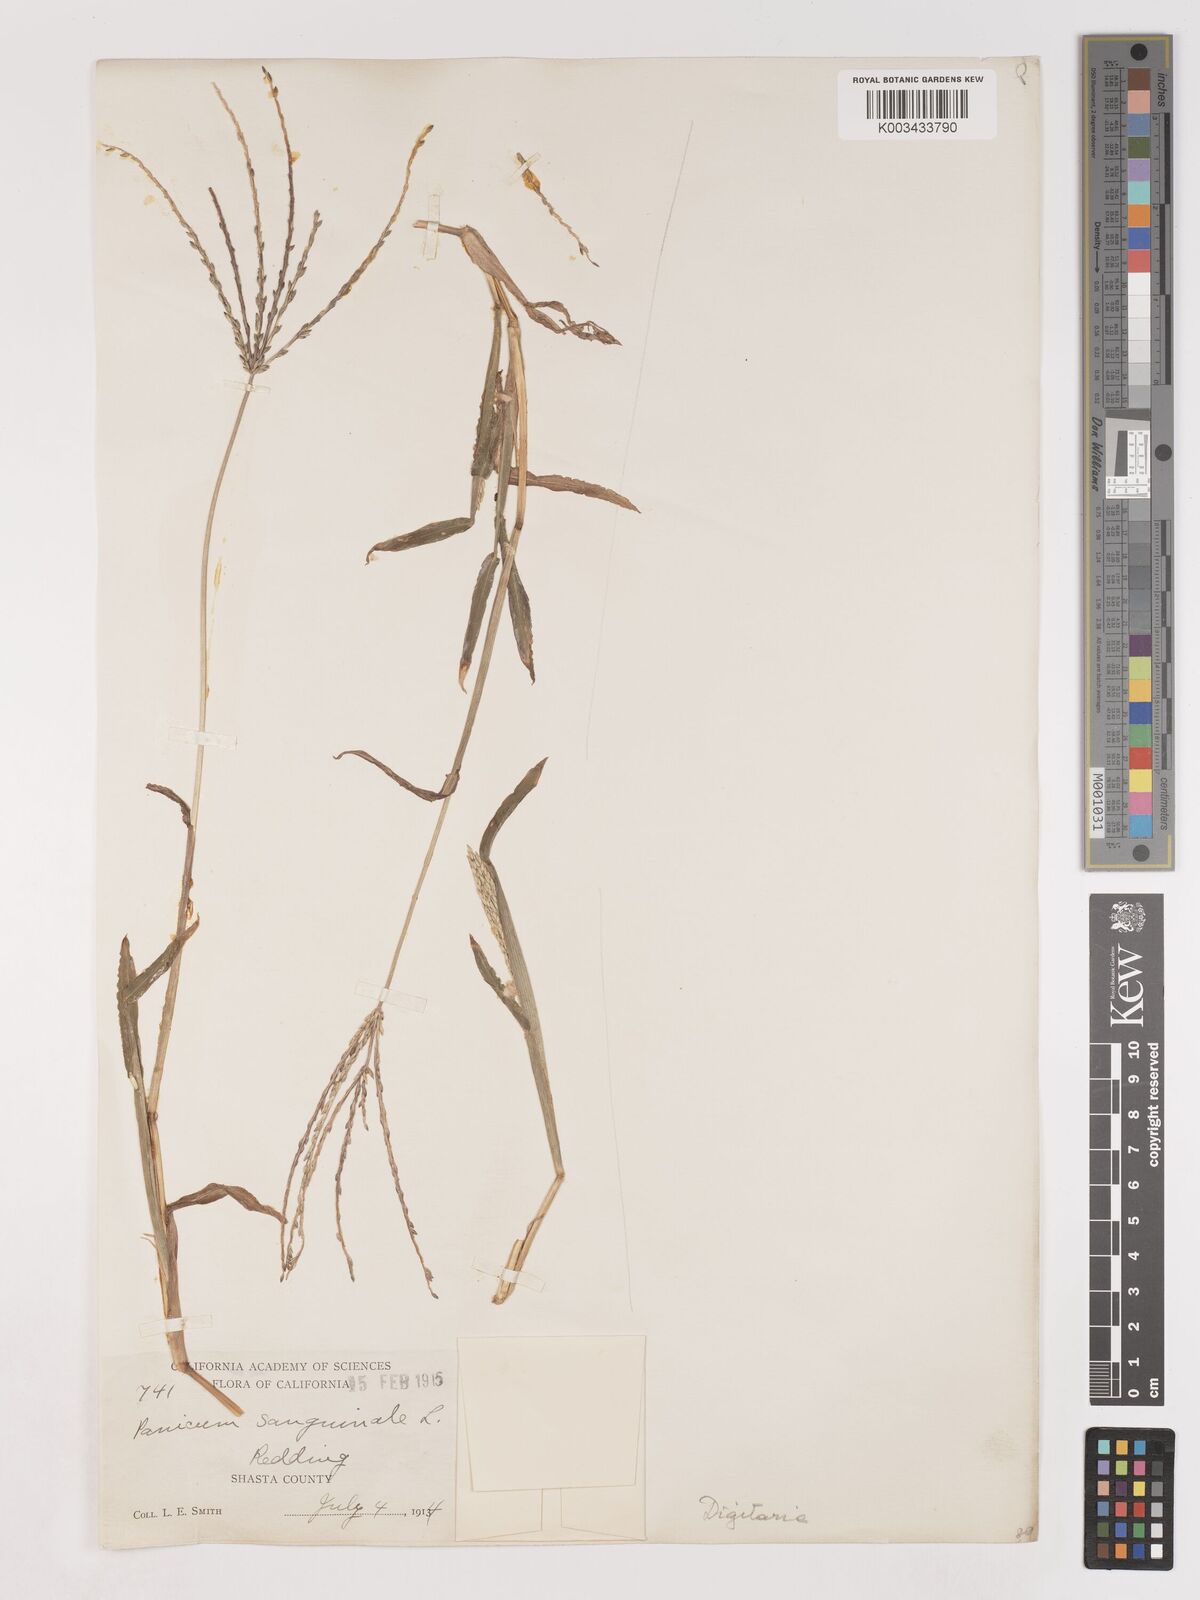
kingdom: Plantae
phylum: Tracheophyta
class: Liliopsida
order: Poales
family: Poaceae
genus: Digitaria
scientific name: Digitaria sanguinalis
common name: Hairy crabgrass
